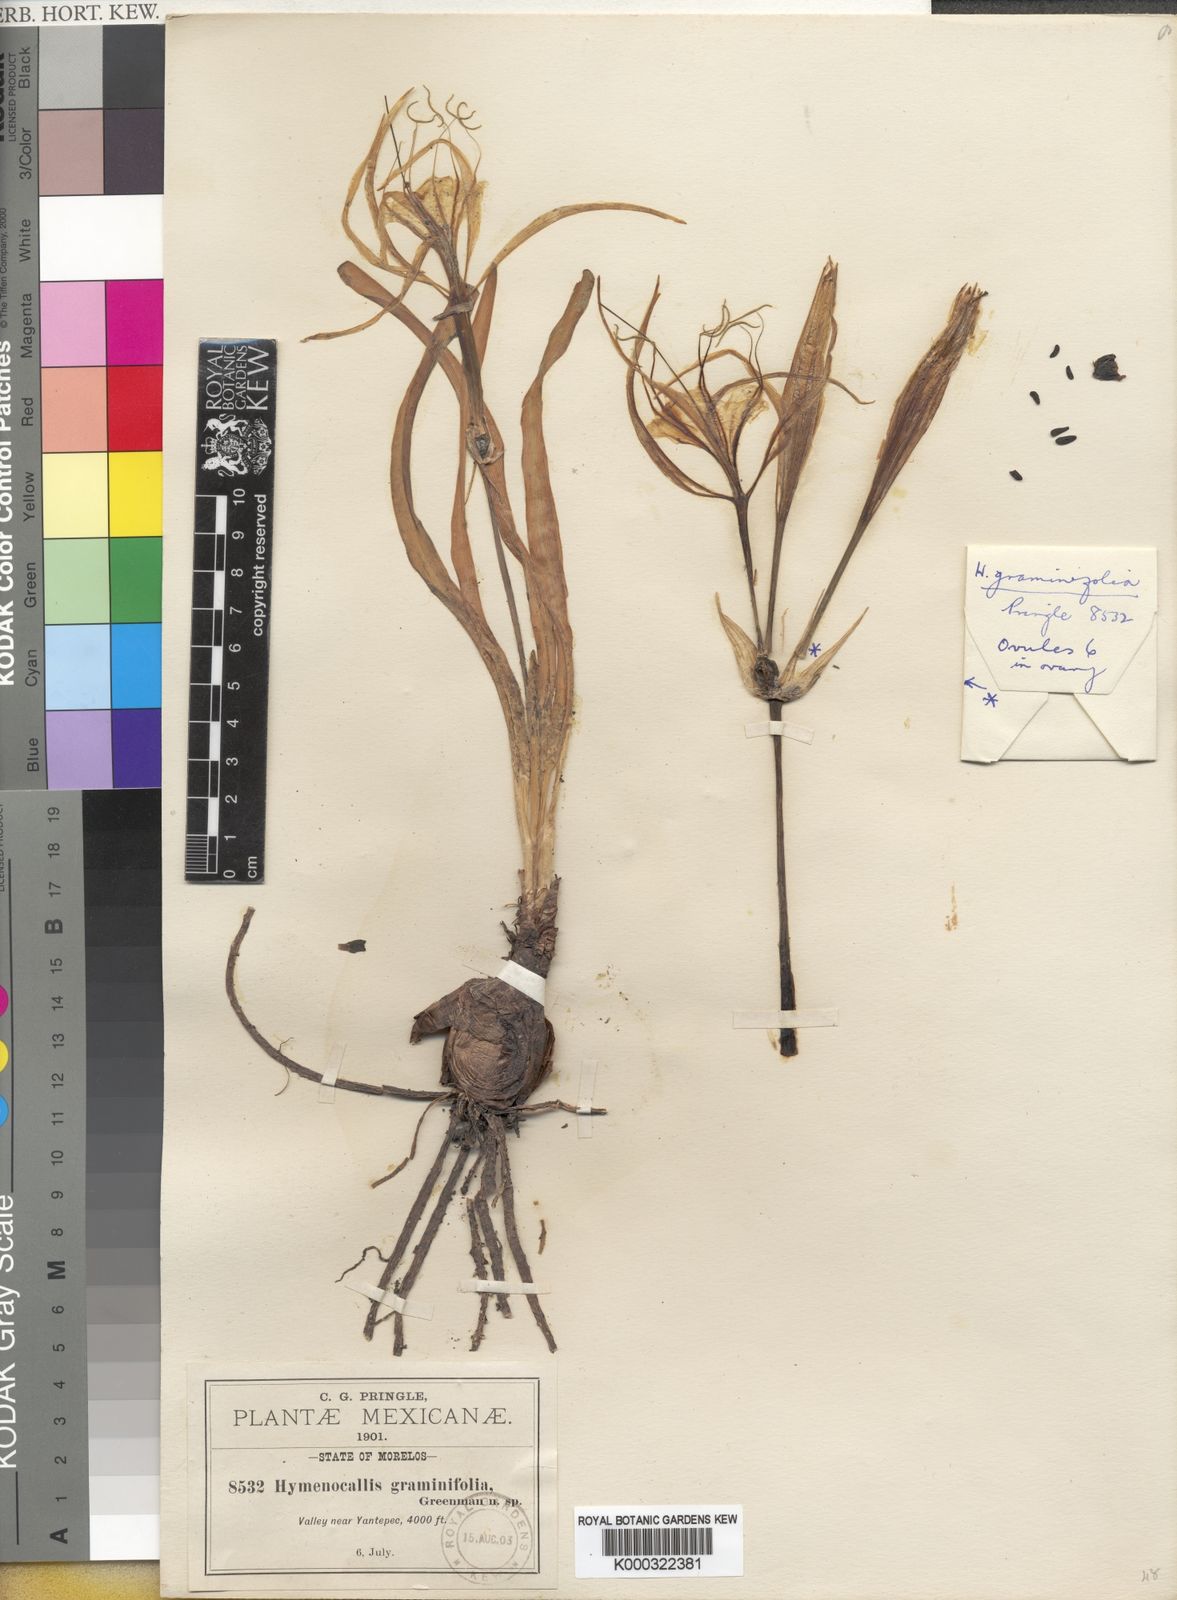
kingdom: Plantae
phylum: Tracheophyta
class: Liliopsida
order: Asparagales
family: Amaryllidaceae
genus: Hymenocallis
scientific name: Hymenocallis graminifolia
